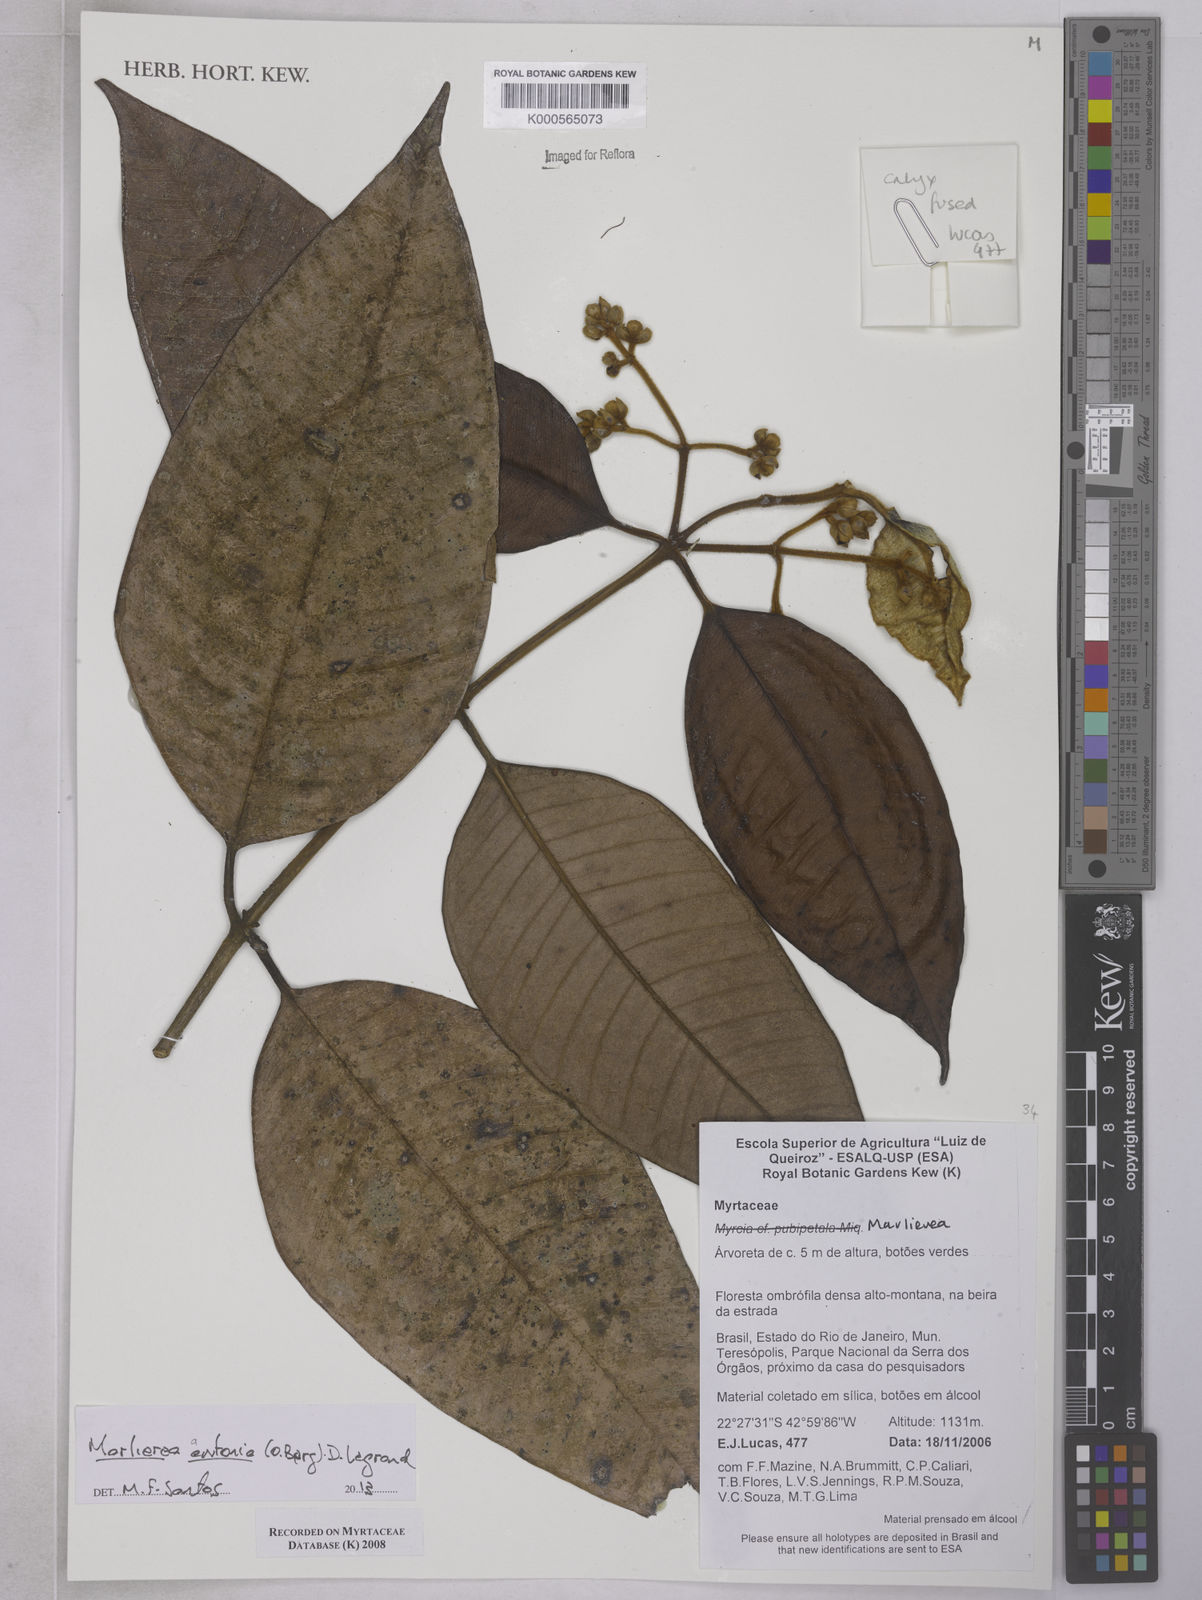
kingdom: Plantae
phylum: Tracheophyta
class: Magnoliopsida
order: Myrtales
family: Myrtaceae
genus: Myrcia
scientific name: Myrcia antonia
